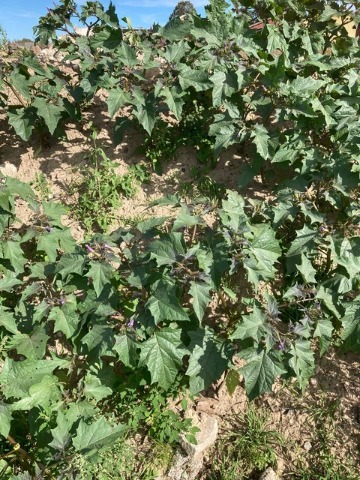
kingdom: Plantae
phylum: Tracheophyta
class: Magnoliopsida
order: Solanales
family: Solanaceae
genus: Datura
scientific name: Datura stramonium
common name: Pigæble
